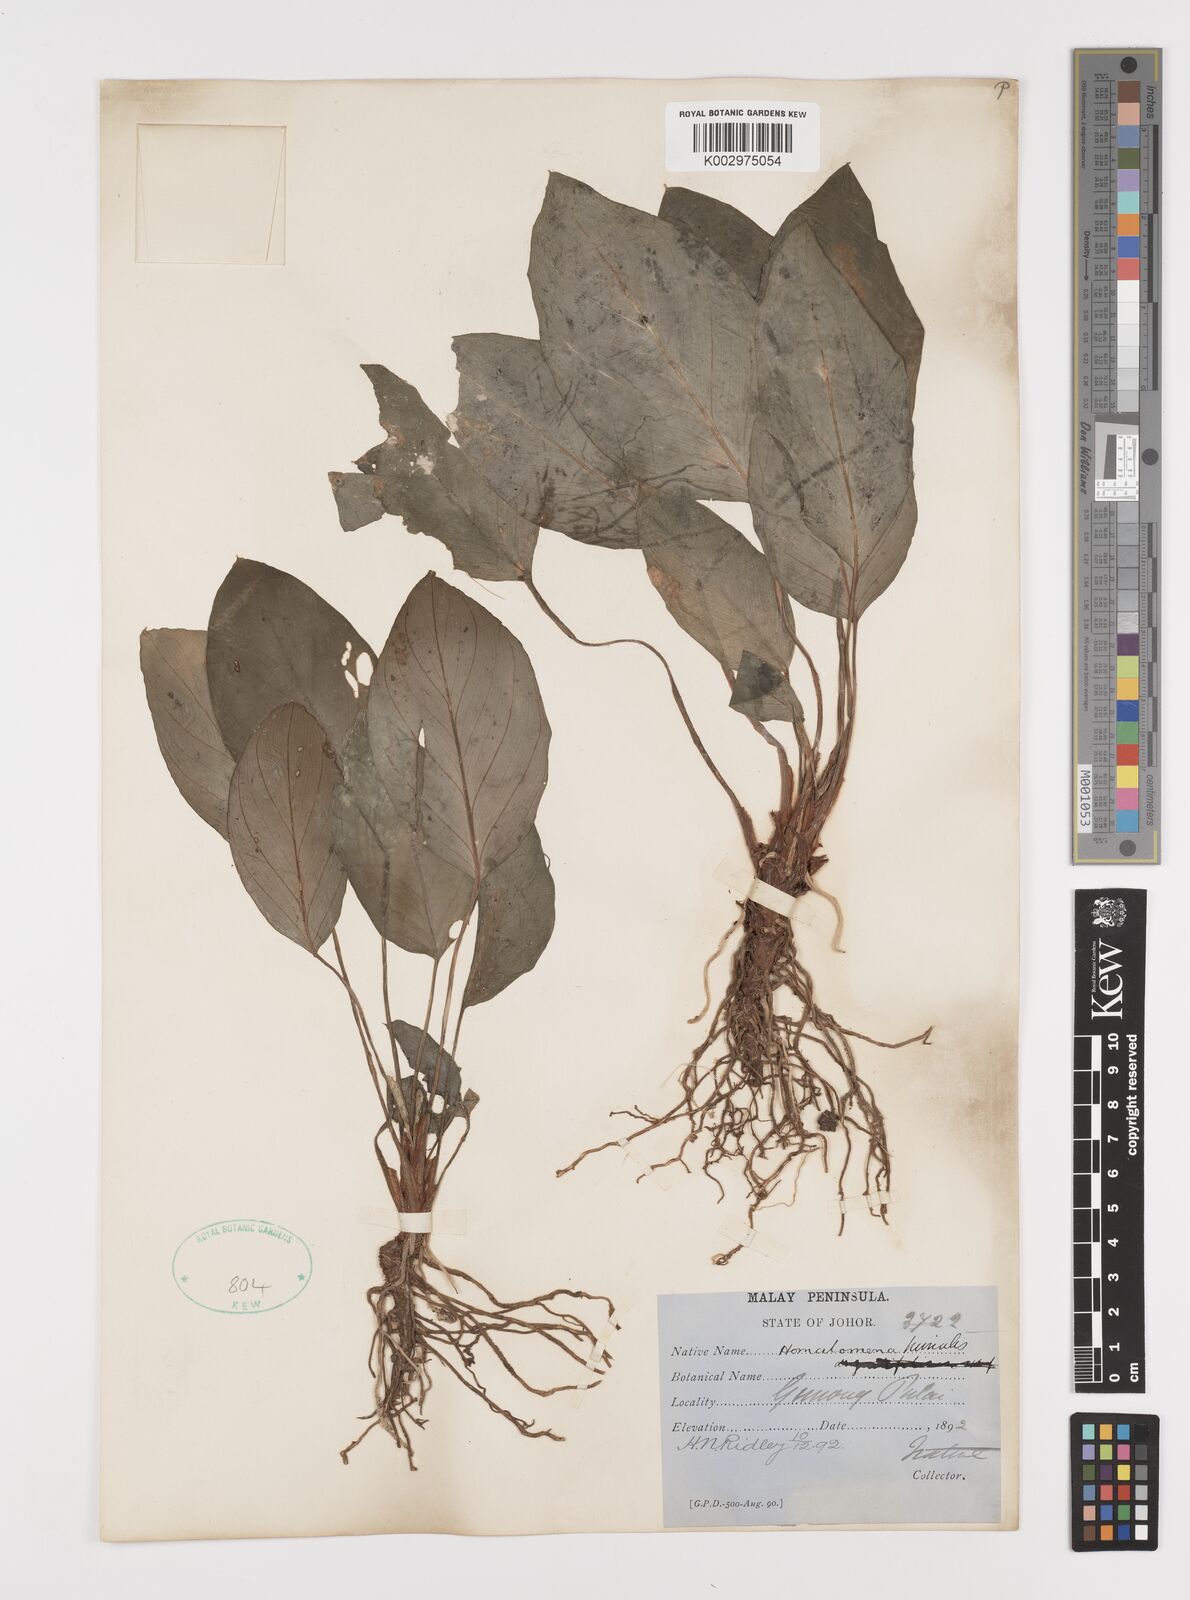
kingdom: Plantae
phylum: Tracheophyta
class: Liliopsida
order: Alismatales
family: Araceae
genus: Homalomena
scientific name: Homalomena humilis
